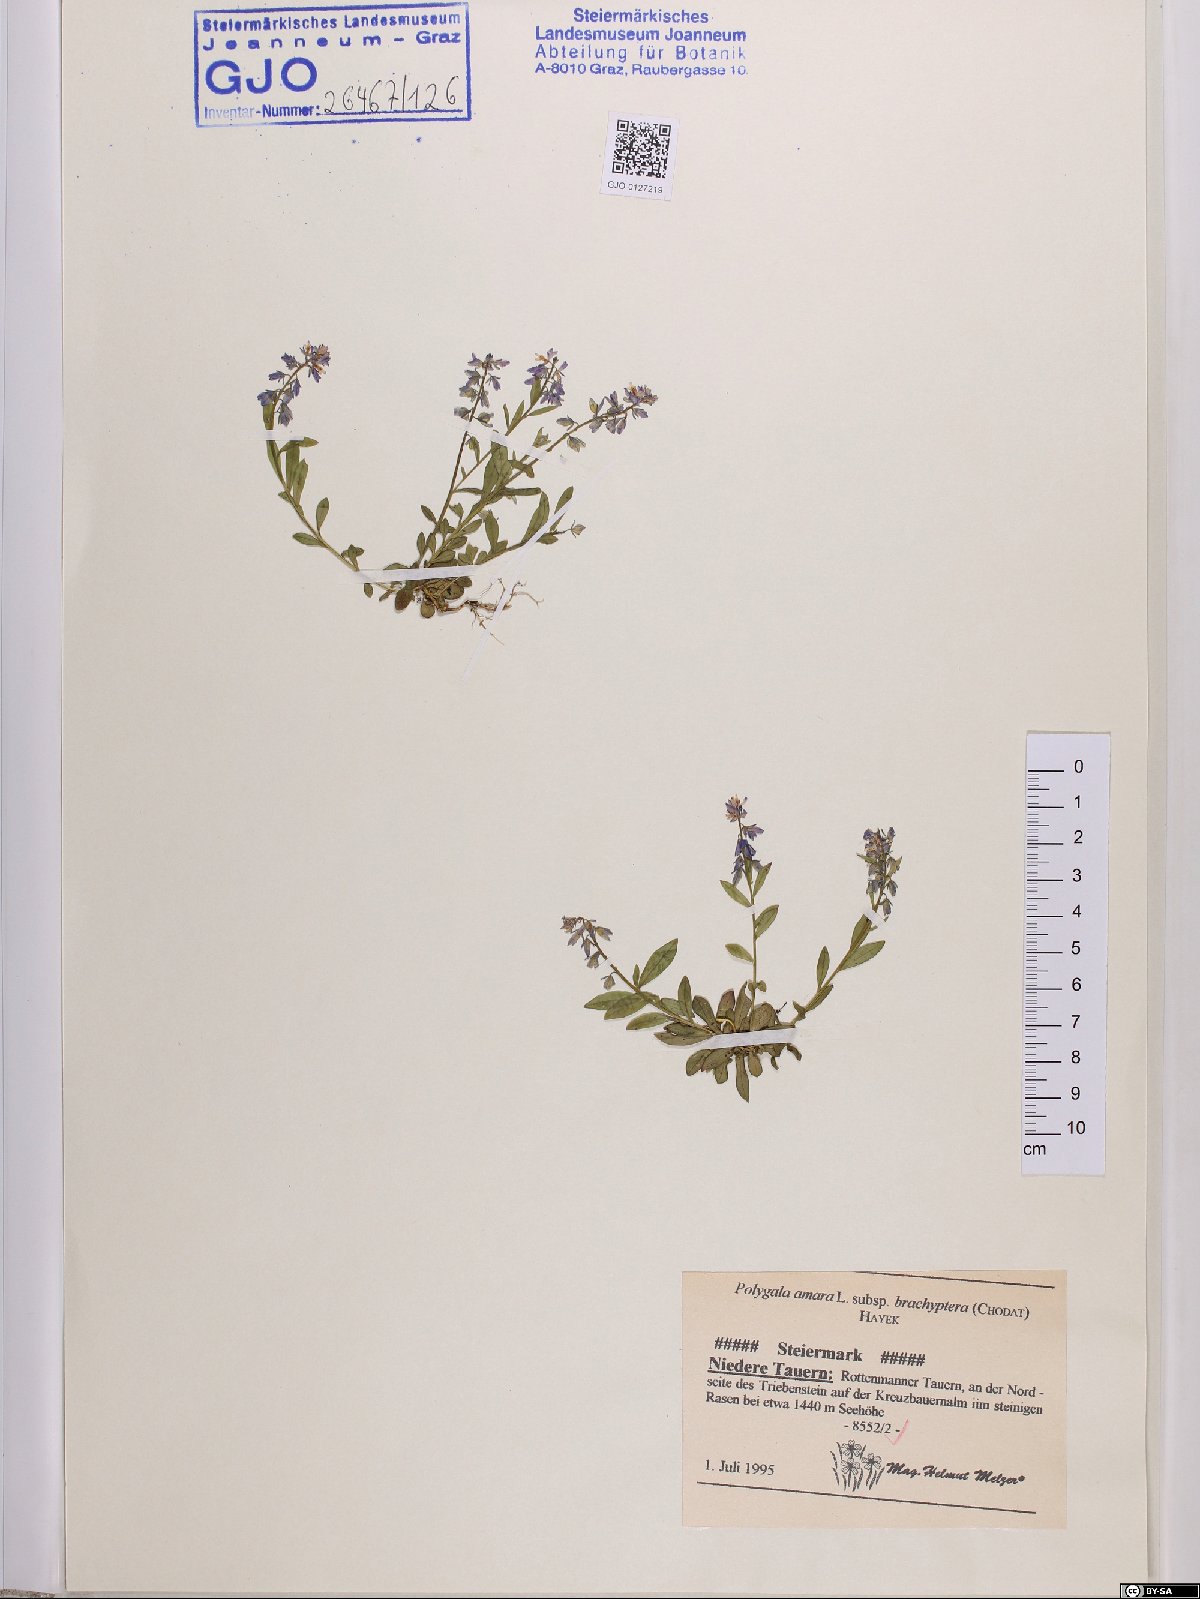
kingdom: Plantae
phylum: Tracheophyta
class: Magnoliopsida
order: Fabales
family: Polygalaceae
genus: Polygala
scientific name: Polygala amara
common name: Milkwort
